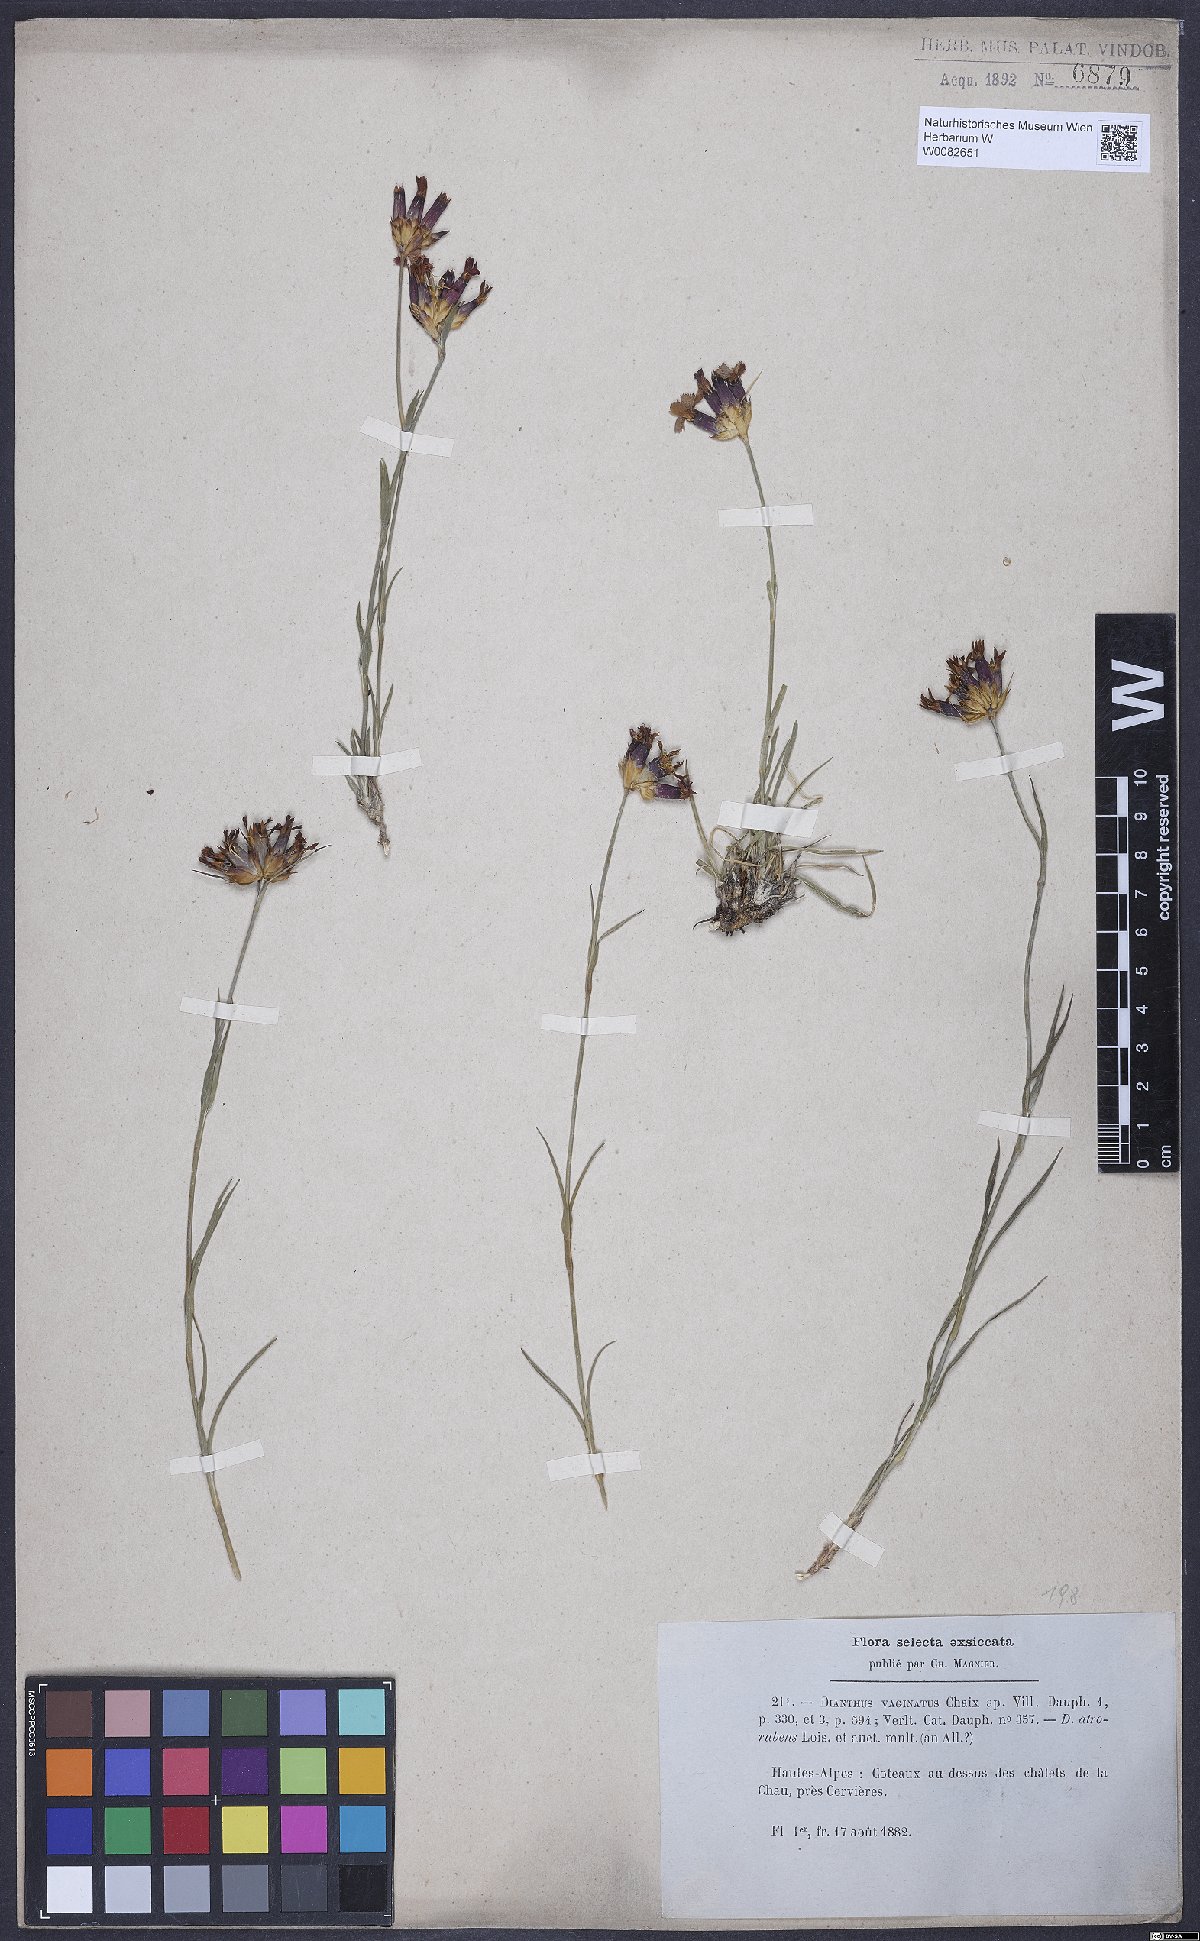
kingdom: Plantae
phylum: Tracheophyta
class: Magnoliopsida
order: Caryophyllales
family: Caryophyllaceae
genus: Dianthus
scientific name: Dianthus carthusianorum
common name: Carthusian pink
